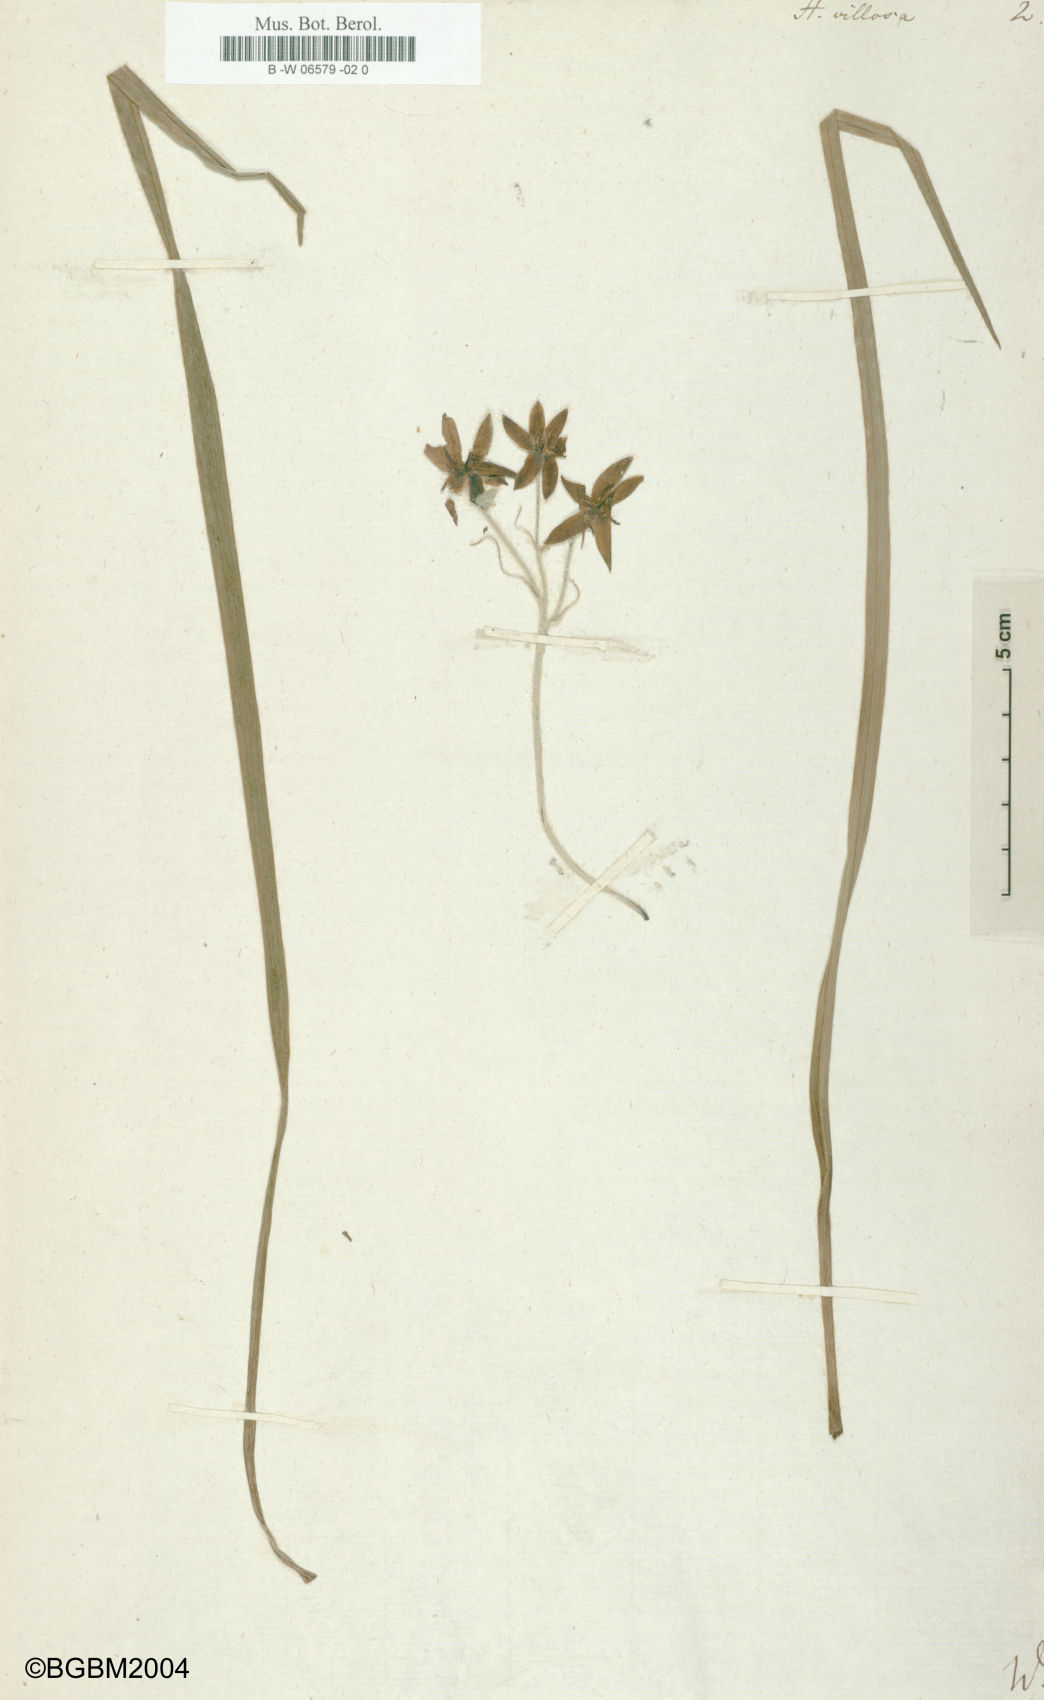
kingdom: Plantae
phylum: Tracheophyta
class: Liliopsida
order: Asparagales
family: Hypoxidaceae
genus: Hypoxis
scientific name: Hypoxis villosa
